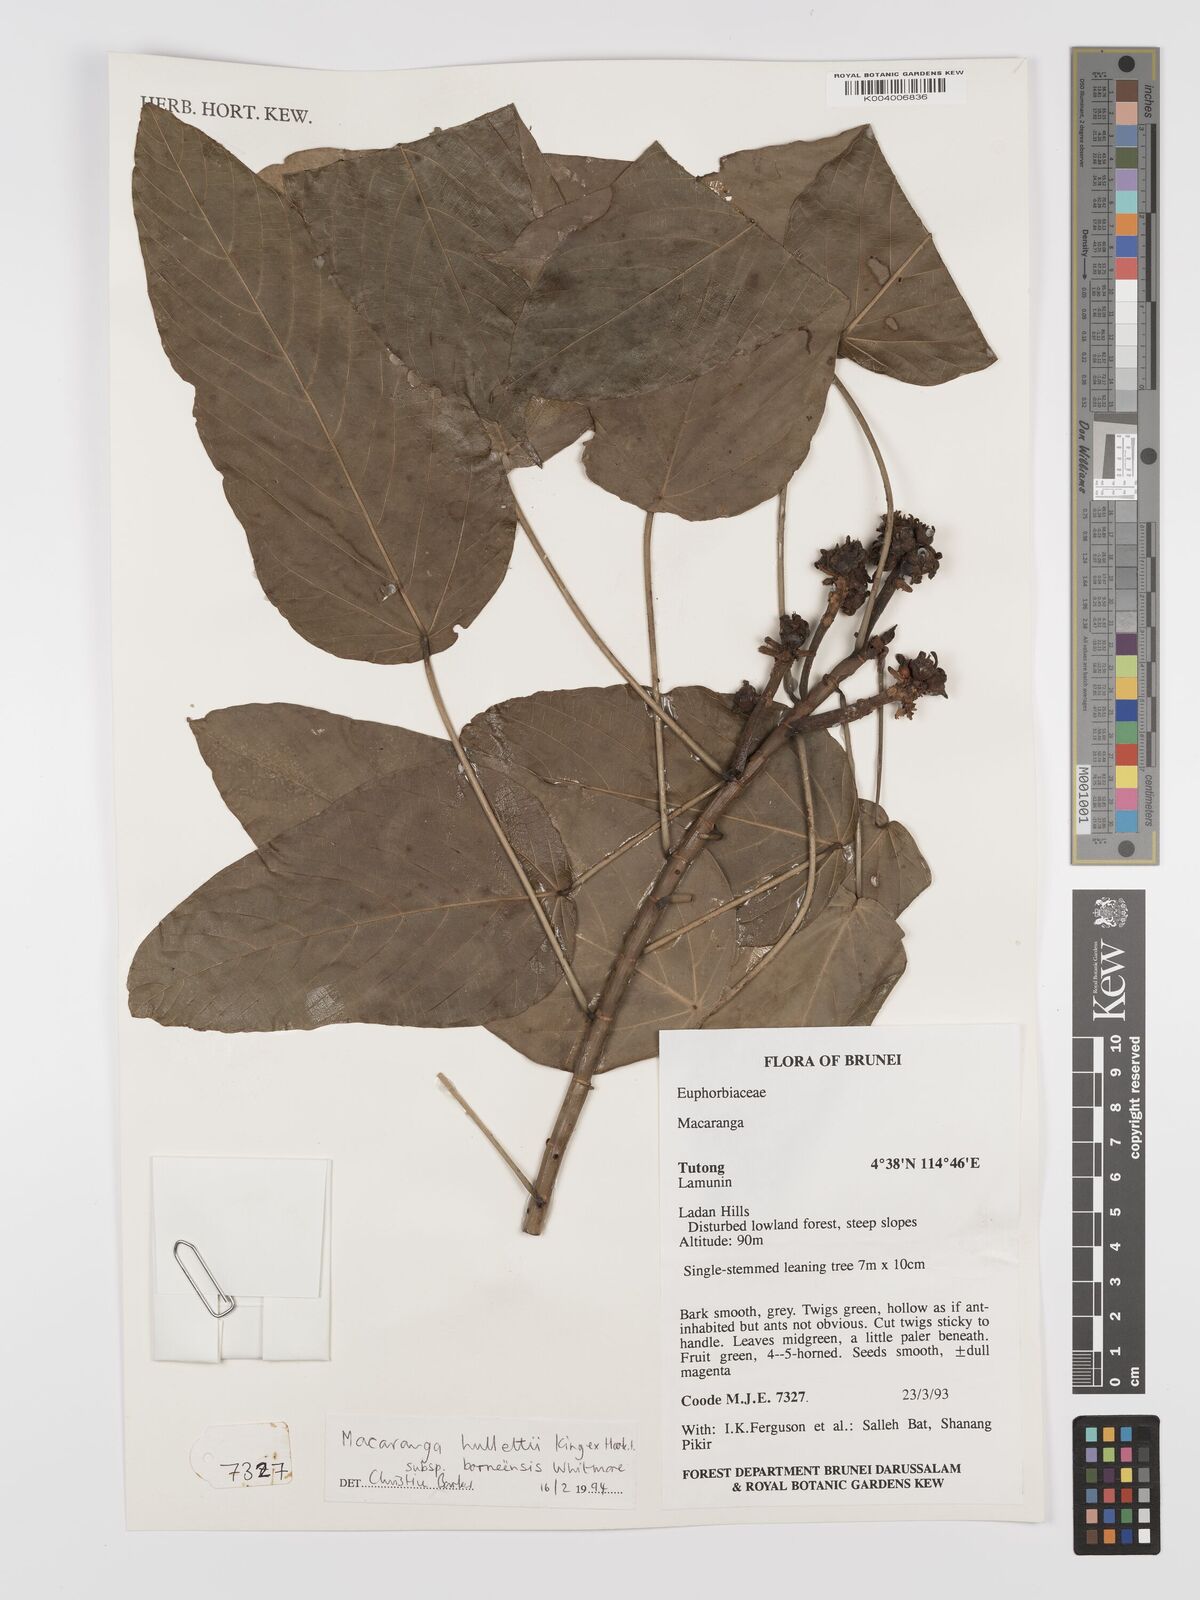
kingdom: Plantae
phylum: Tracheophyta
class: Magnoliopsida
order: Malpighiales
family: Euphorbiaceae
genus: Macaranga
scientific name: Macaranga hullettii
